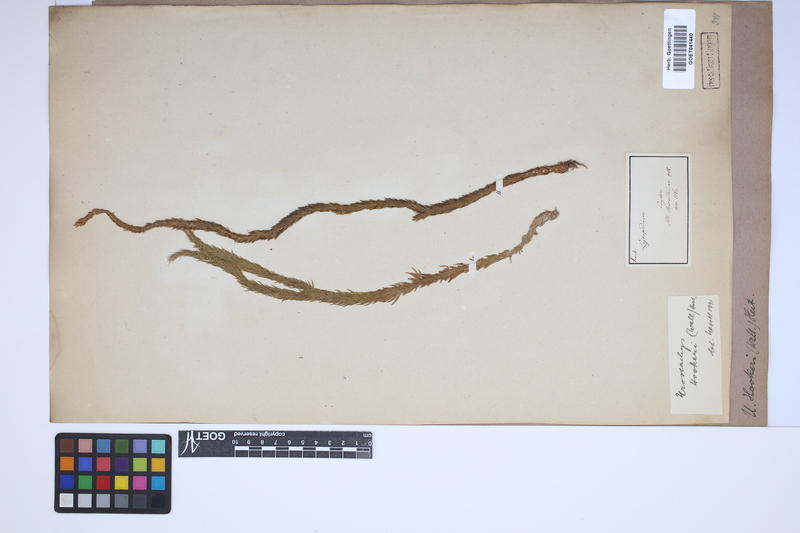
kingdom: Plantae
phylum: Tracheophyta
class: Lycopodiopsida
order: Lycopodiales
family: Lycopodiaceae
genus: Phlegmariurus
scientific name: Phlegmariurus squarrosus
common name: Rock tassel-fern
